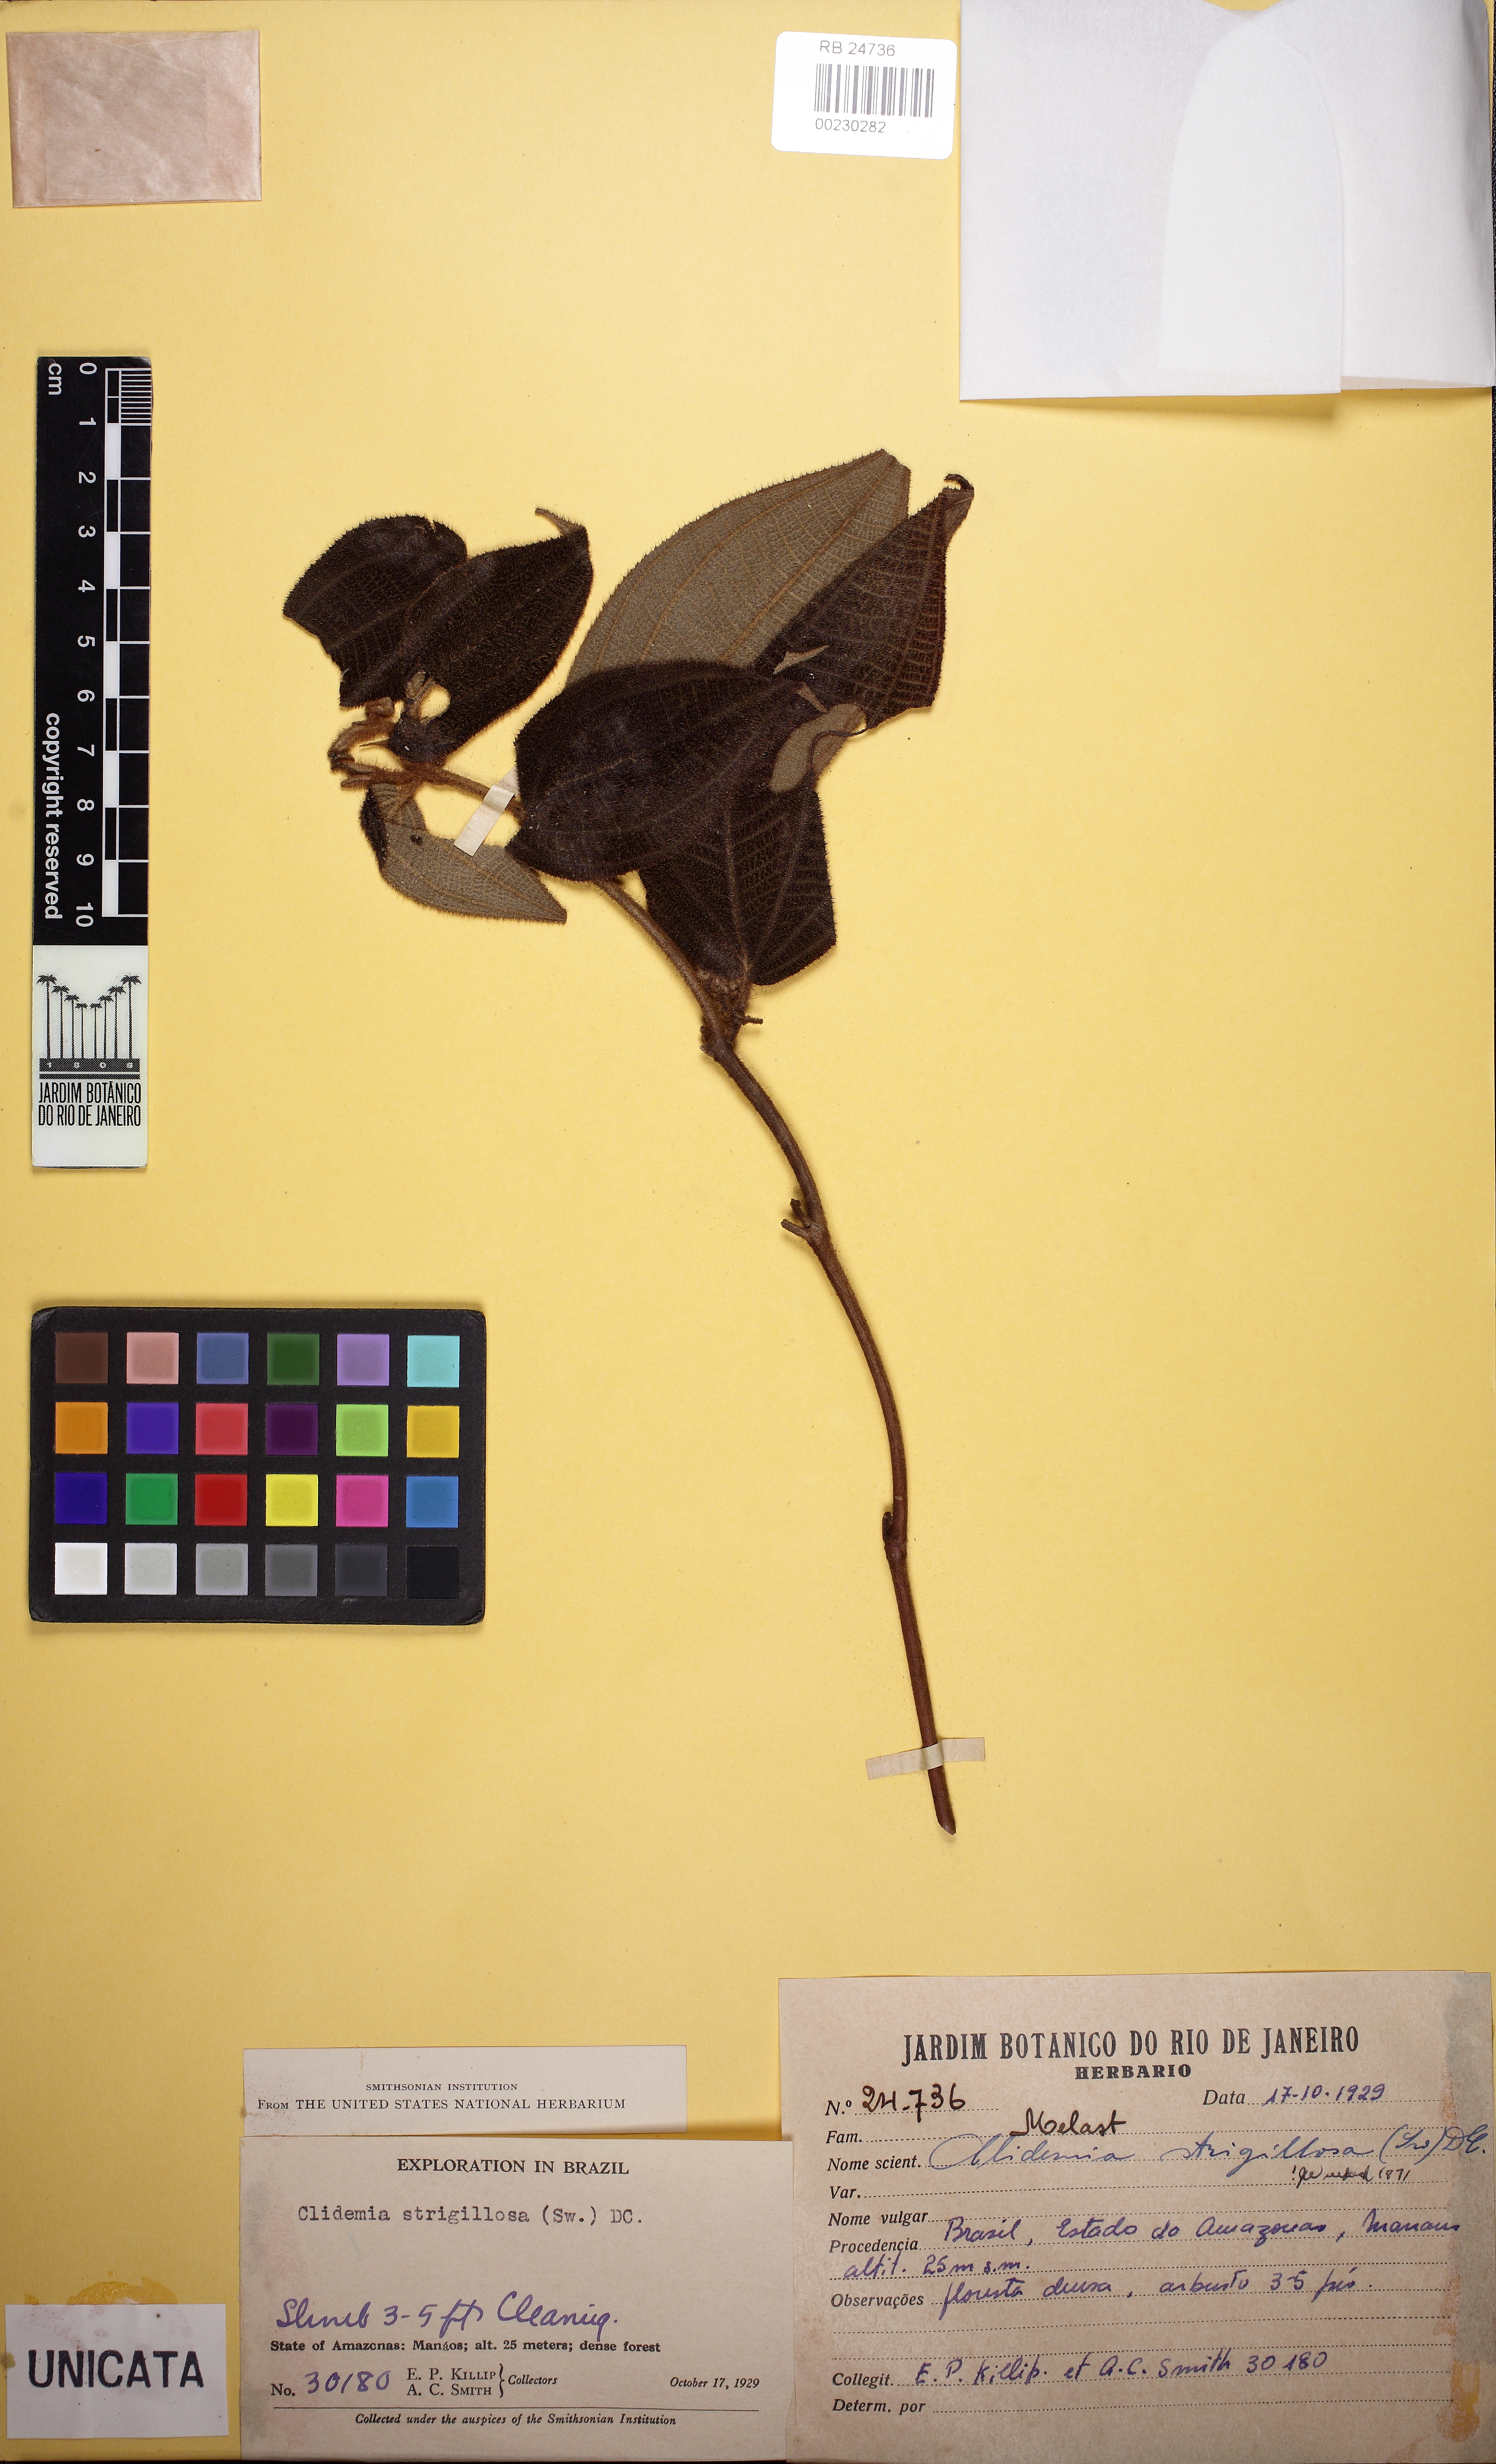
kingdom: Plantae
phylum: Tracheophyta
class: Magnoliopsida
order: Myrtales
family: Melastomataceae
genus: Miconia
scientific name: Miconia strigillosa
